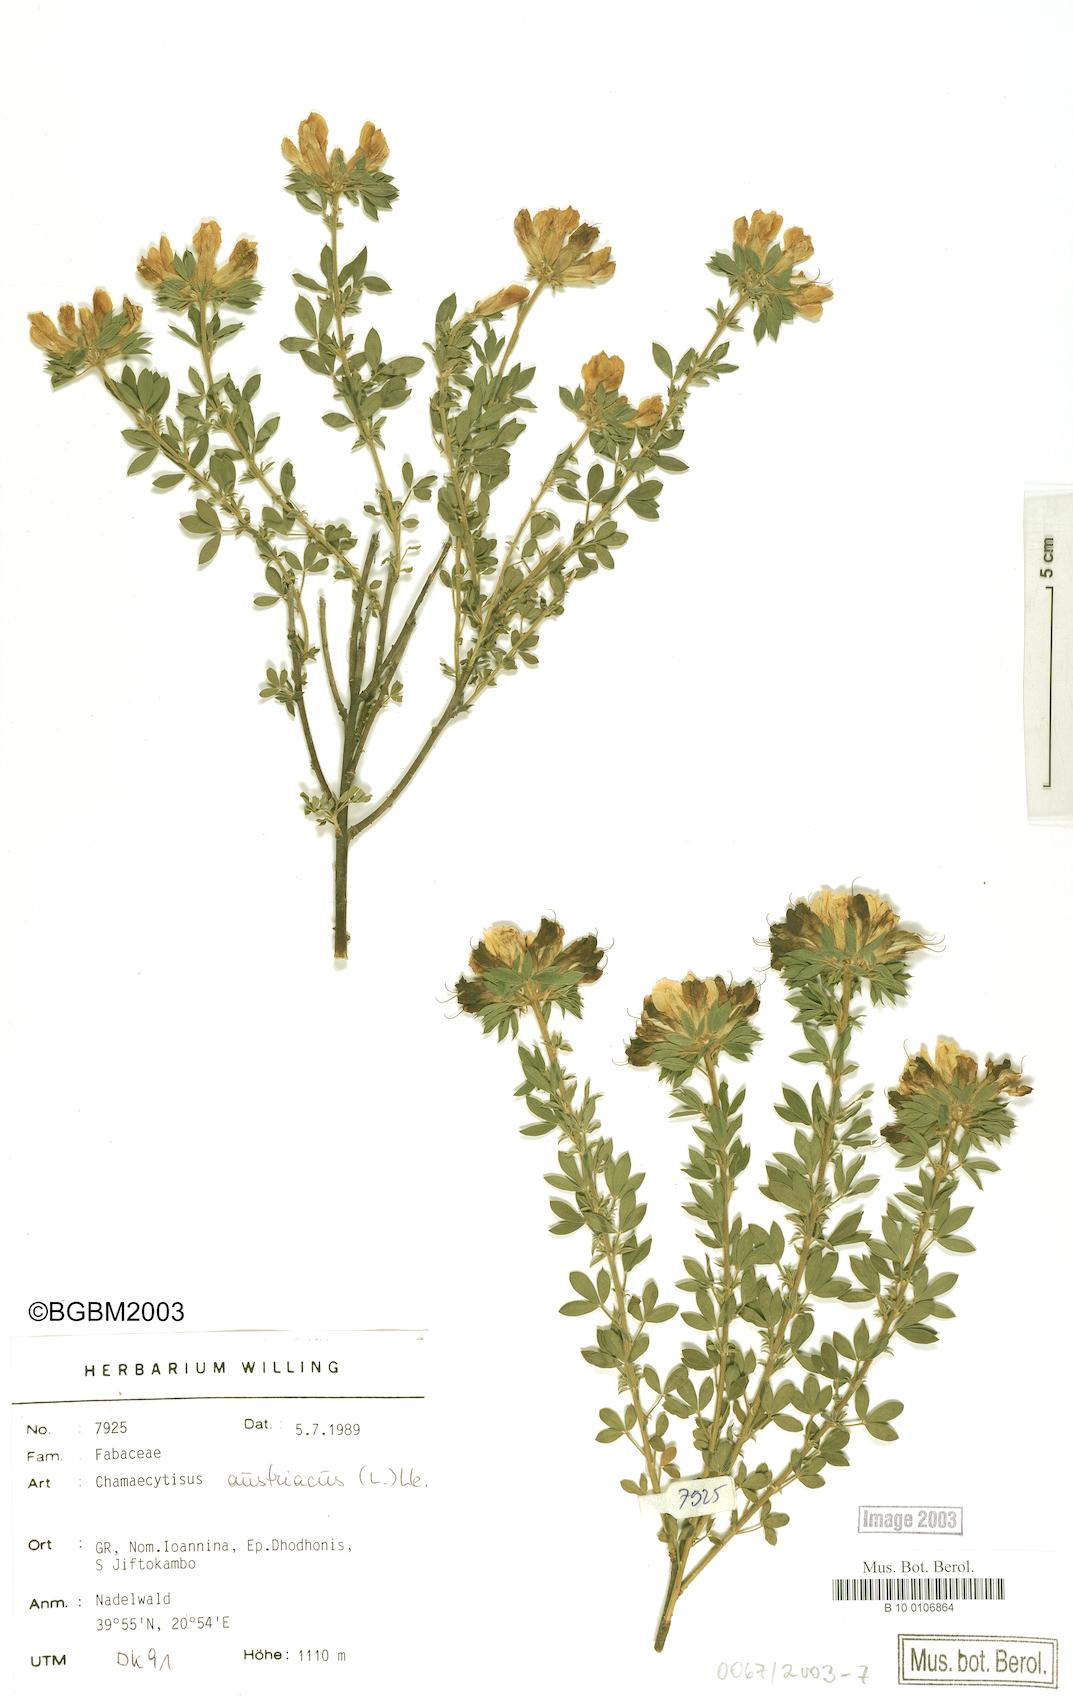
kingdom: Plantae
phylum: Tracheophyta
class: Magnoliopsida
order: Fabales
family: Fabaceae
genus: Chamaecytisus
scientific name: Chamaecytisus austriacus
